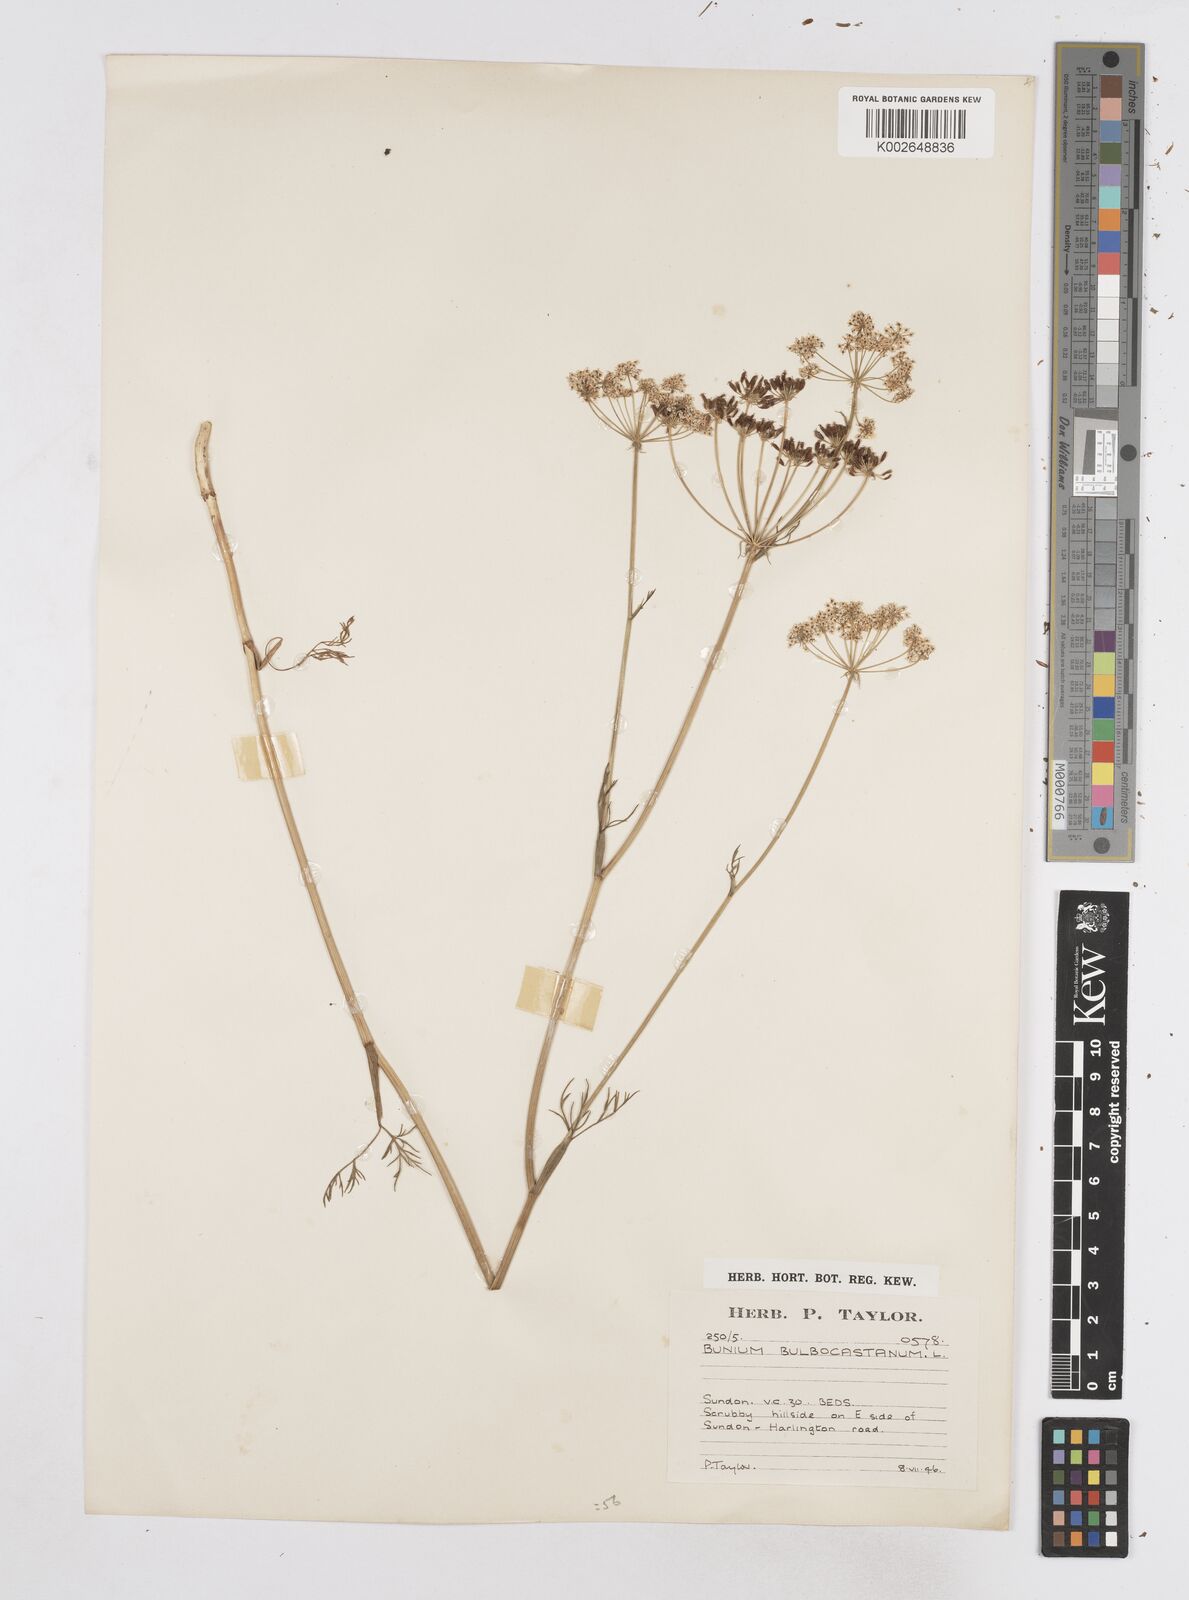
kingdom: Plantae
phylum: Tracheophyta
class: Magnoliopsida
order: Apiales
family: Apiaceae
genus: Bunium
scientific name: Bunium bulbocastanum
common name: Great pignut
